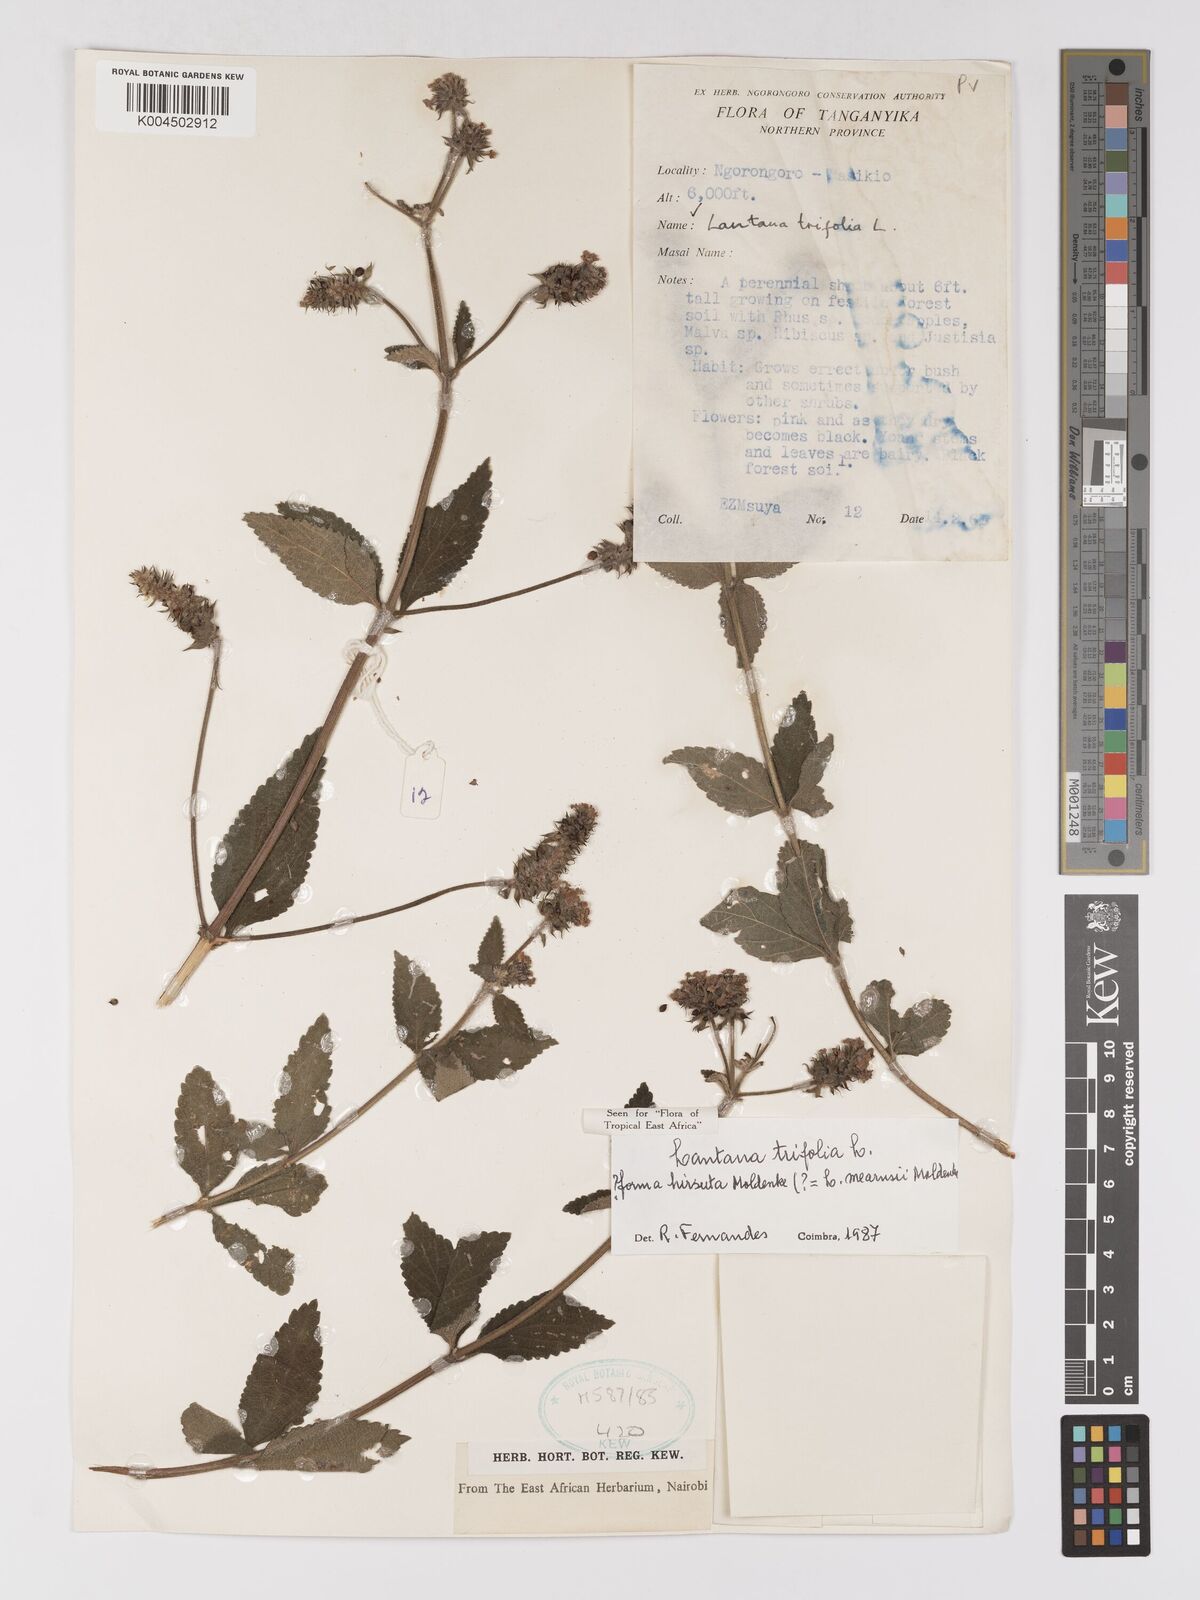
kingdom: Plantae
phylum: Tracheophyta
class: Magnoliopsida
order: Lamiales
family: Verbenaceae
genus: Lantana
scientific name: Lantana trifolia
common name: Sweet-sage
